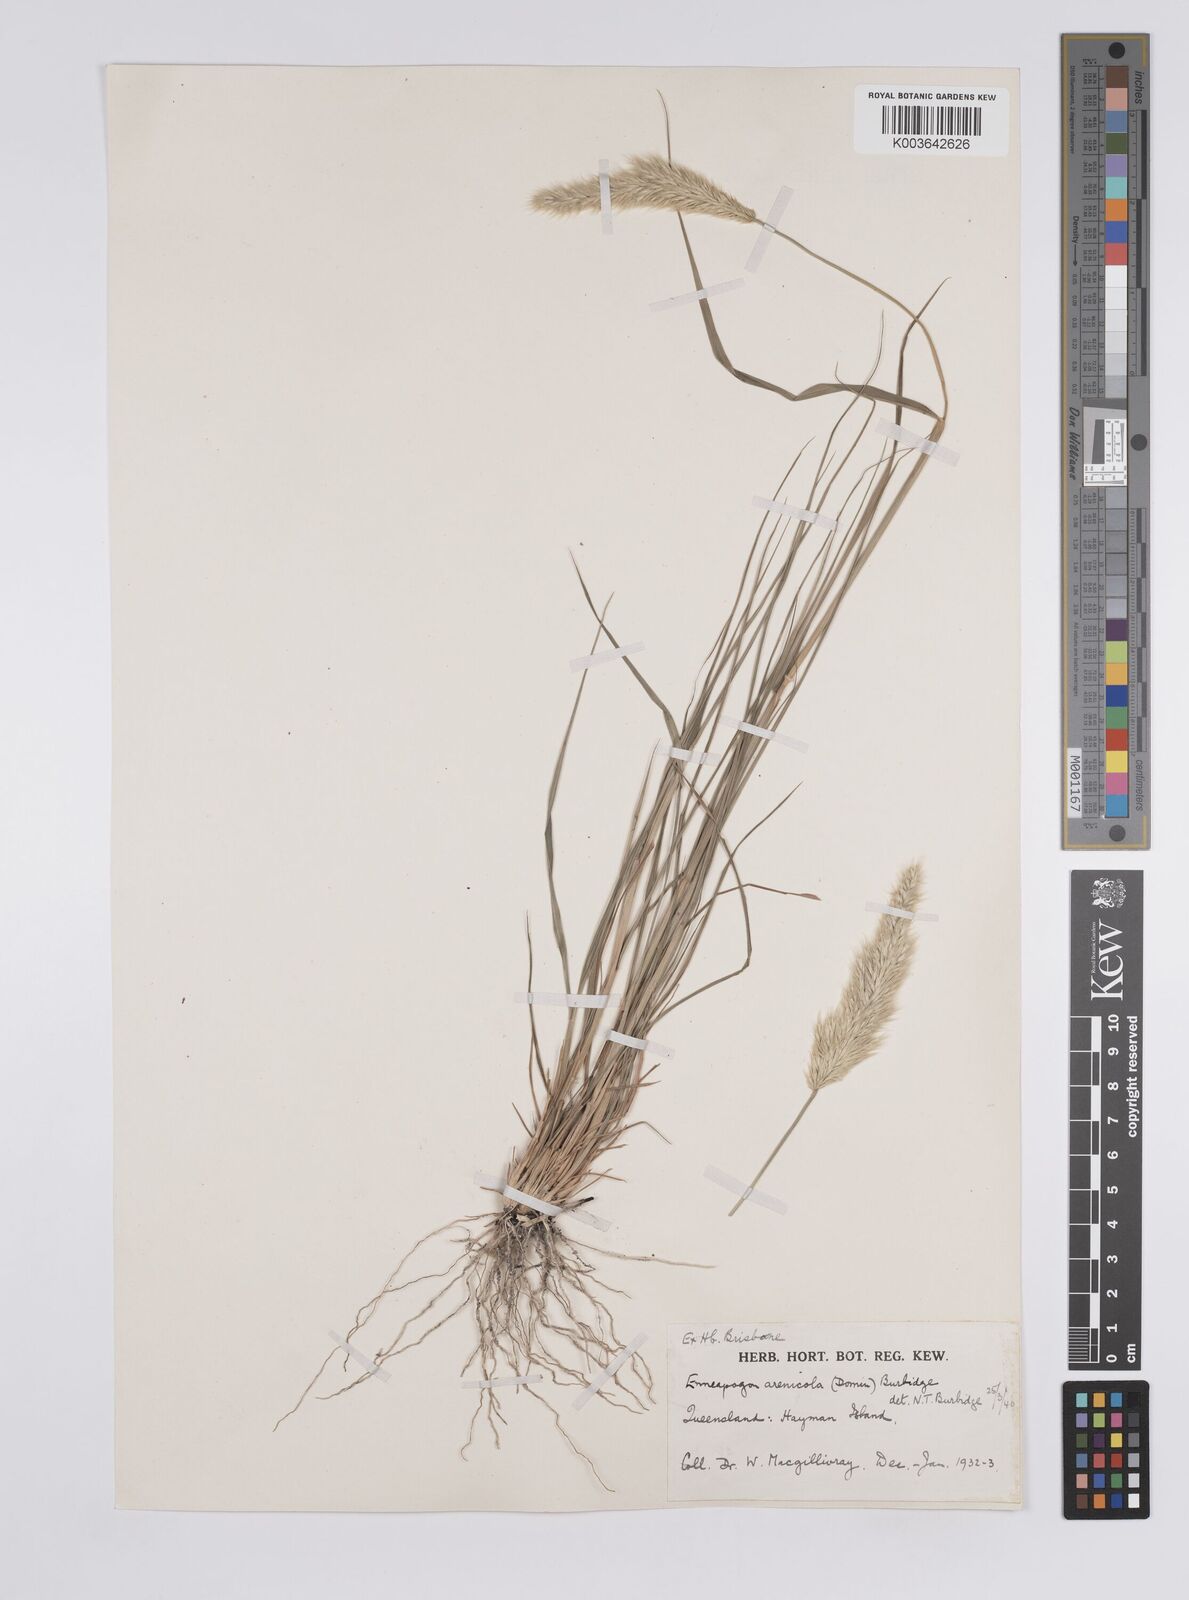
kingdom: Plantae
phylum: Tracheophyta
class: Liliopsida
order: Poales
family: Poaceae
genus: Enneapogon
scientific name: Enneapogon nigricans
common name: Pappus grass
